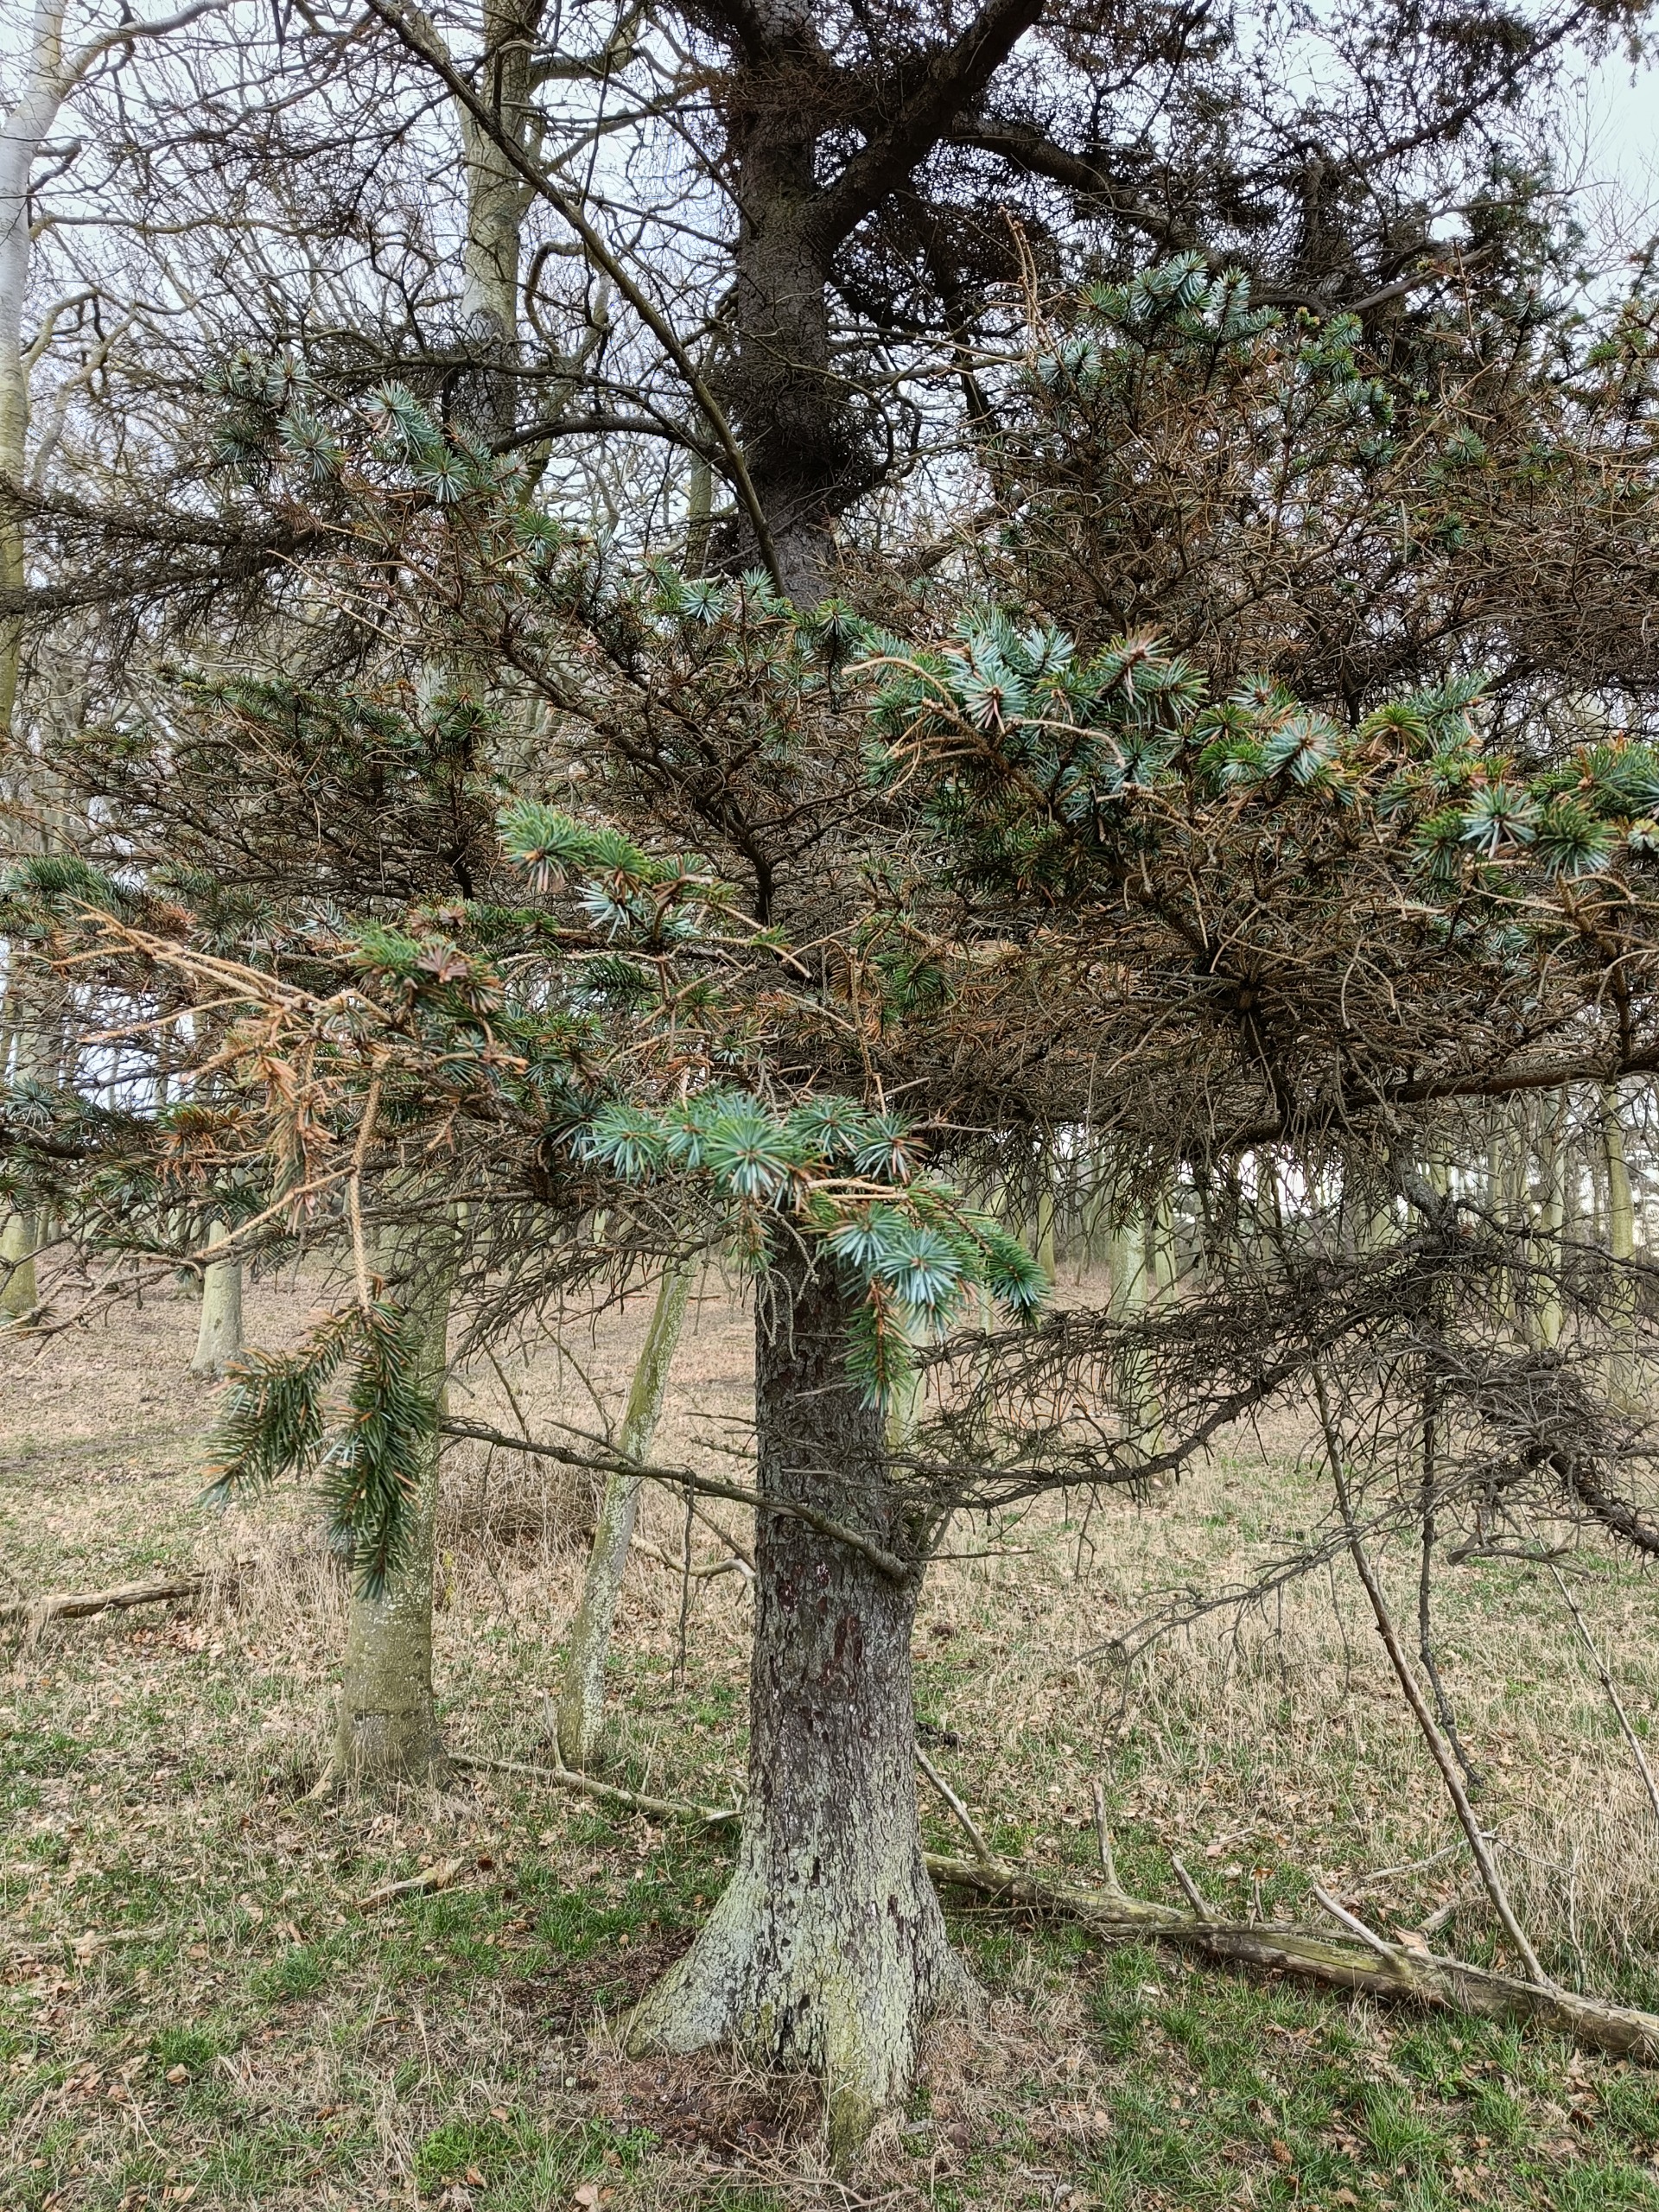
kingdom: Plantae
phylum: Tracheophyta
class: Pinopsida
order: Pinales
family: Pinaceae
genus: Picea
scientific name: Picea sitchensis
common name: Sitka-gran
